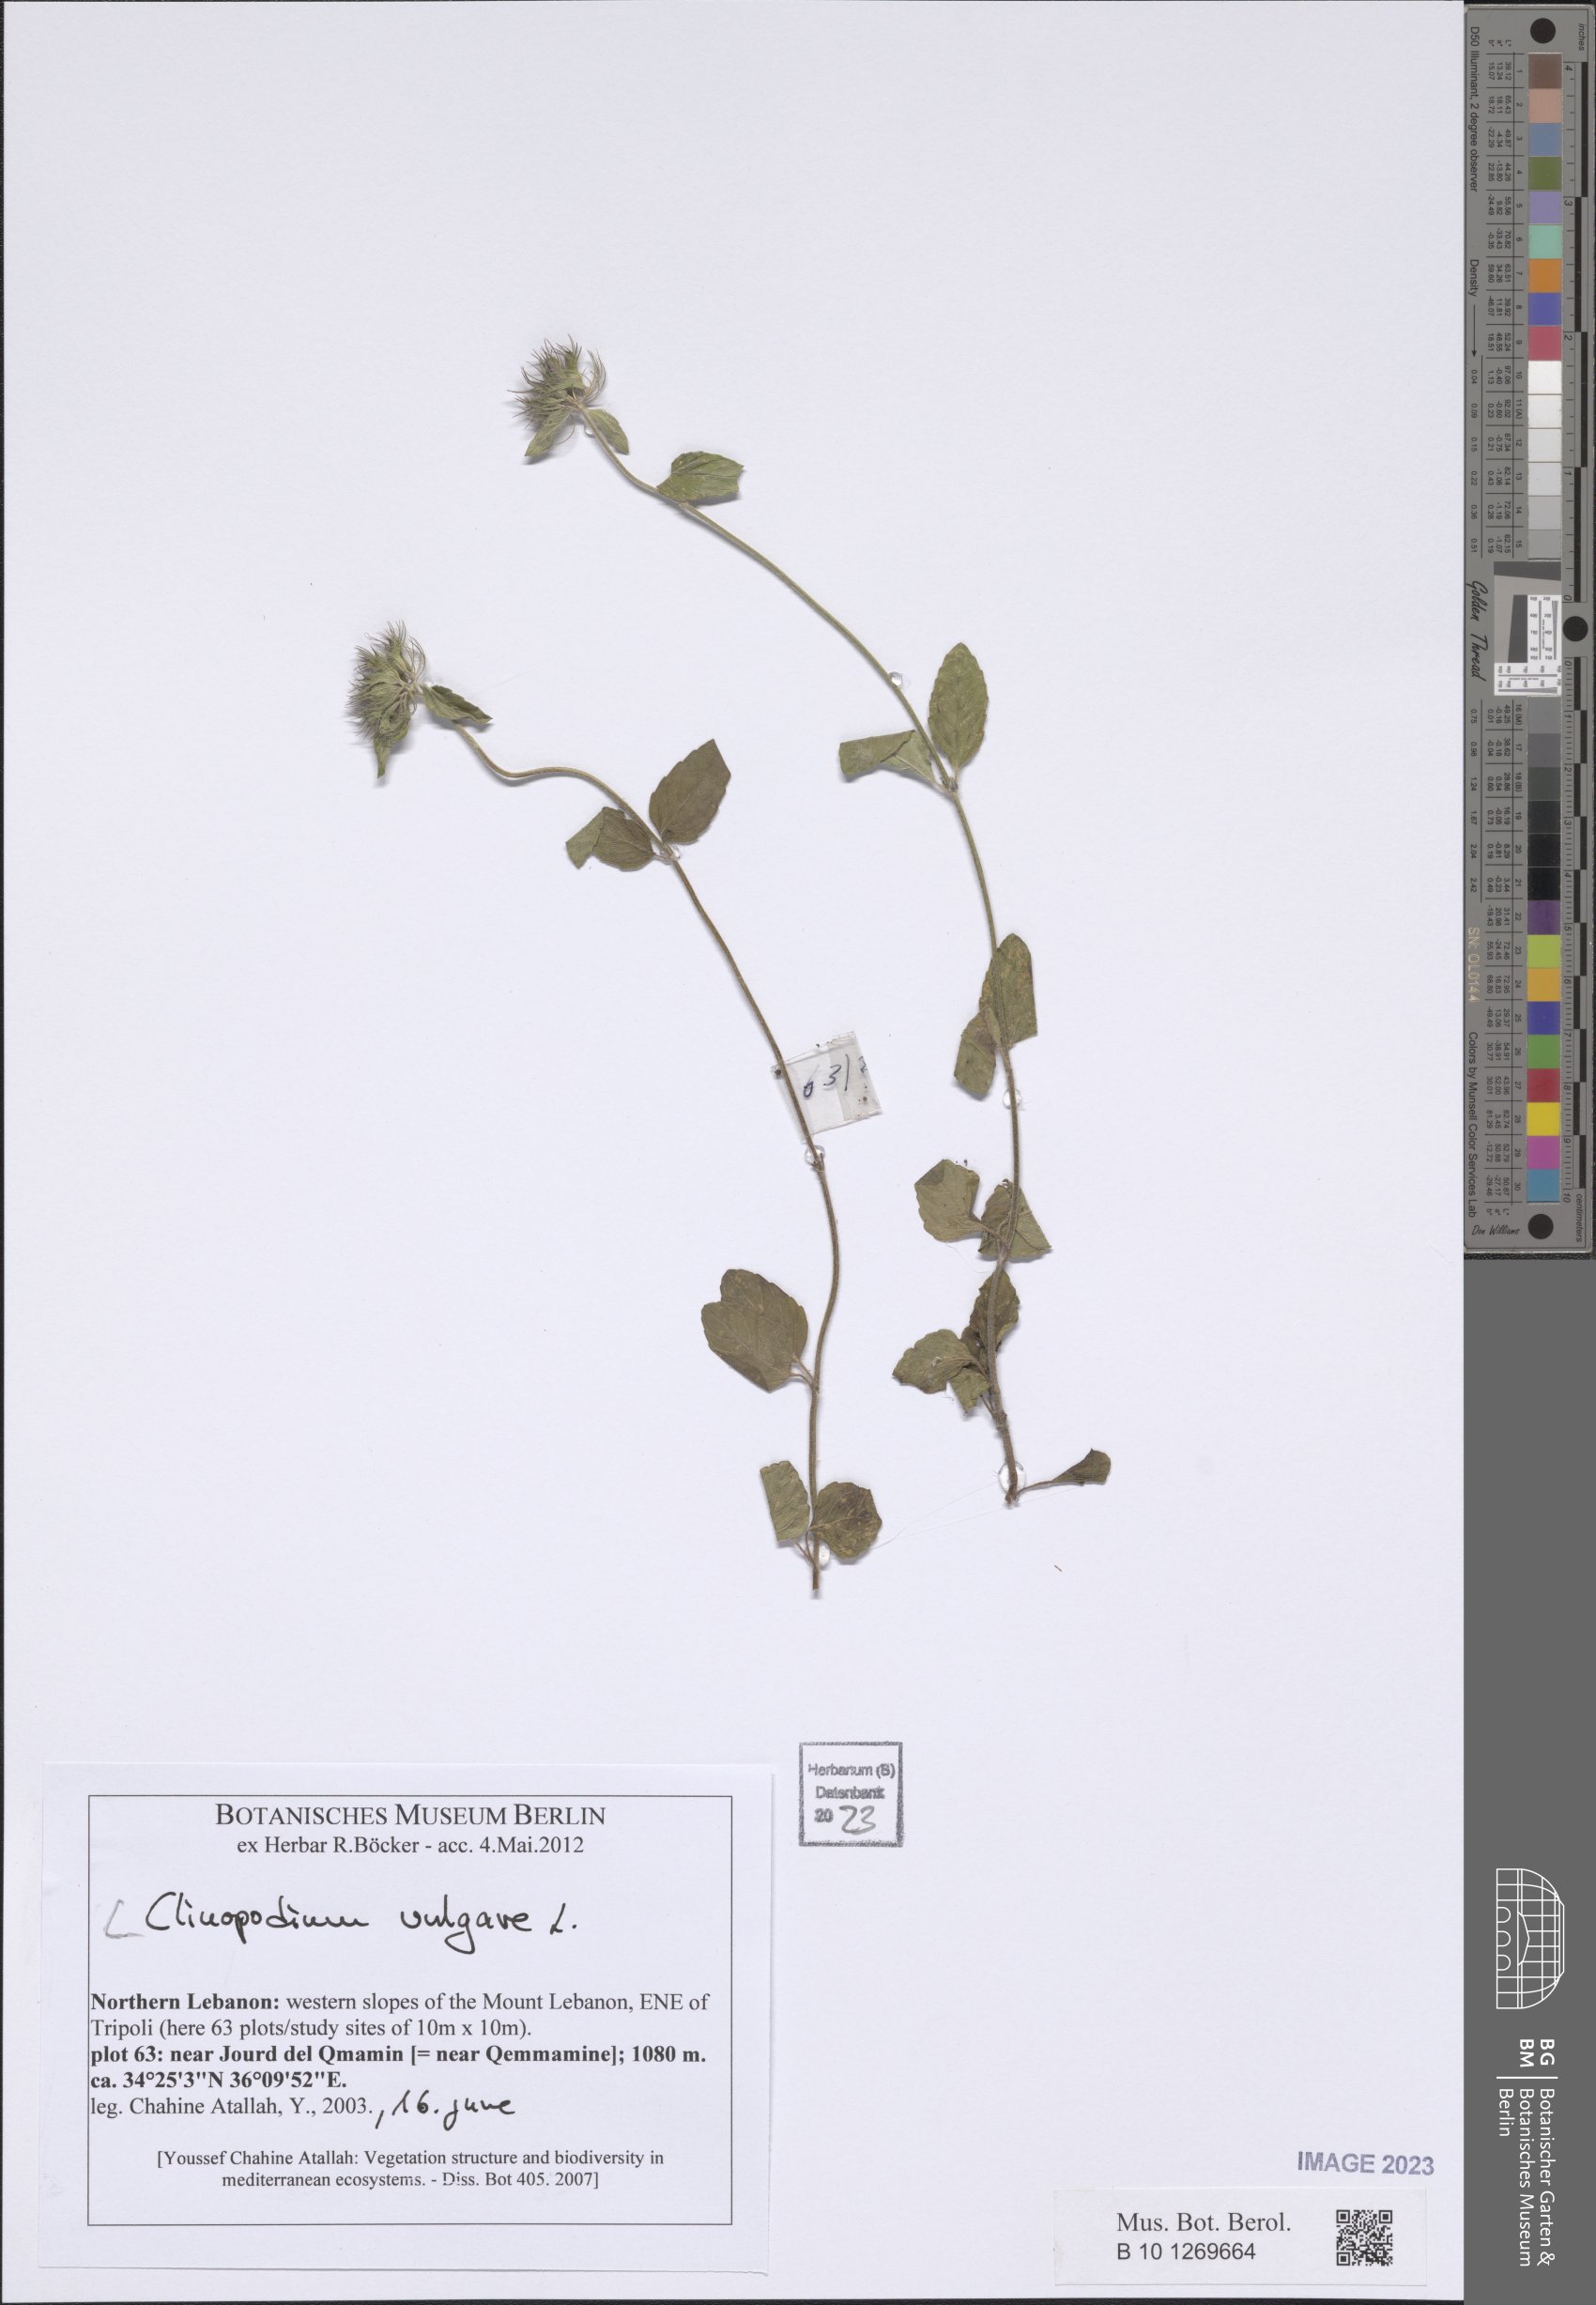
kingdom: Plantae
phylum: Tracheophyta
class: Magnoliopsida
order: Lamiales
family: Lamiaceae
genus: Clinopodium
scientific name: Clinopodium vulgare
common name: Wild basil
